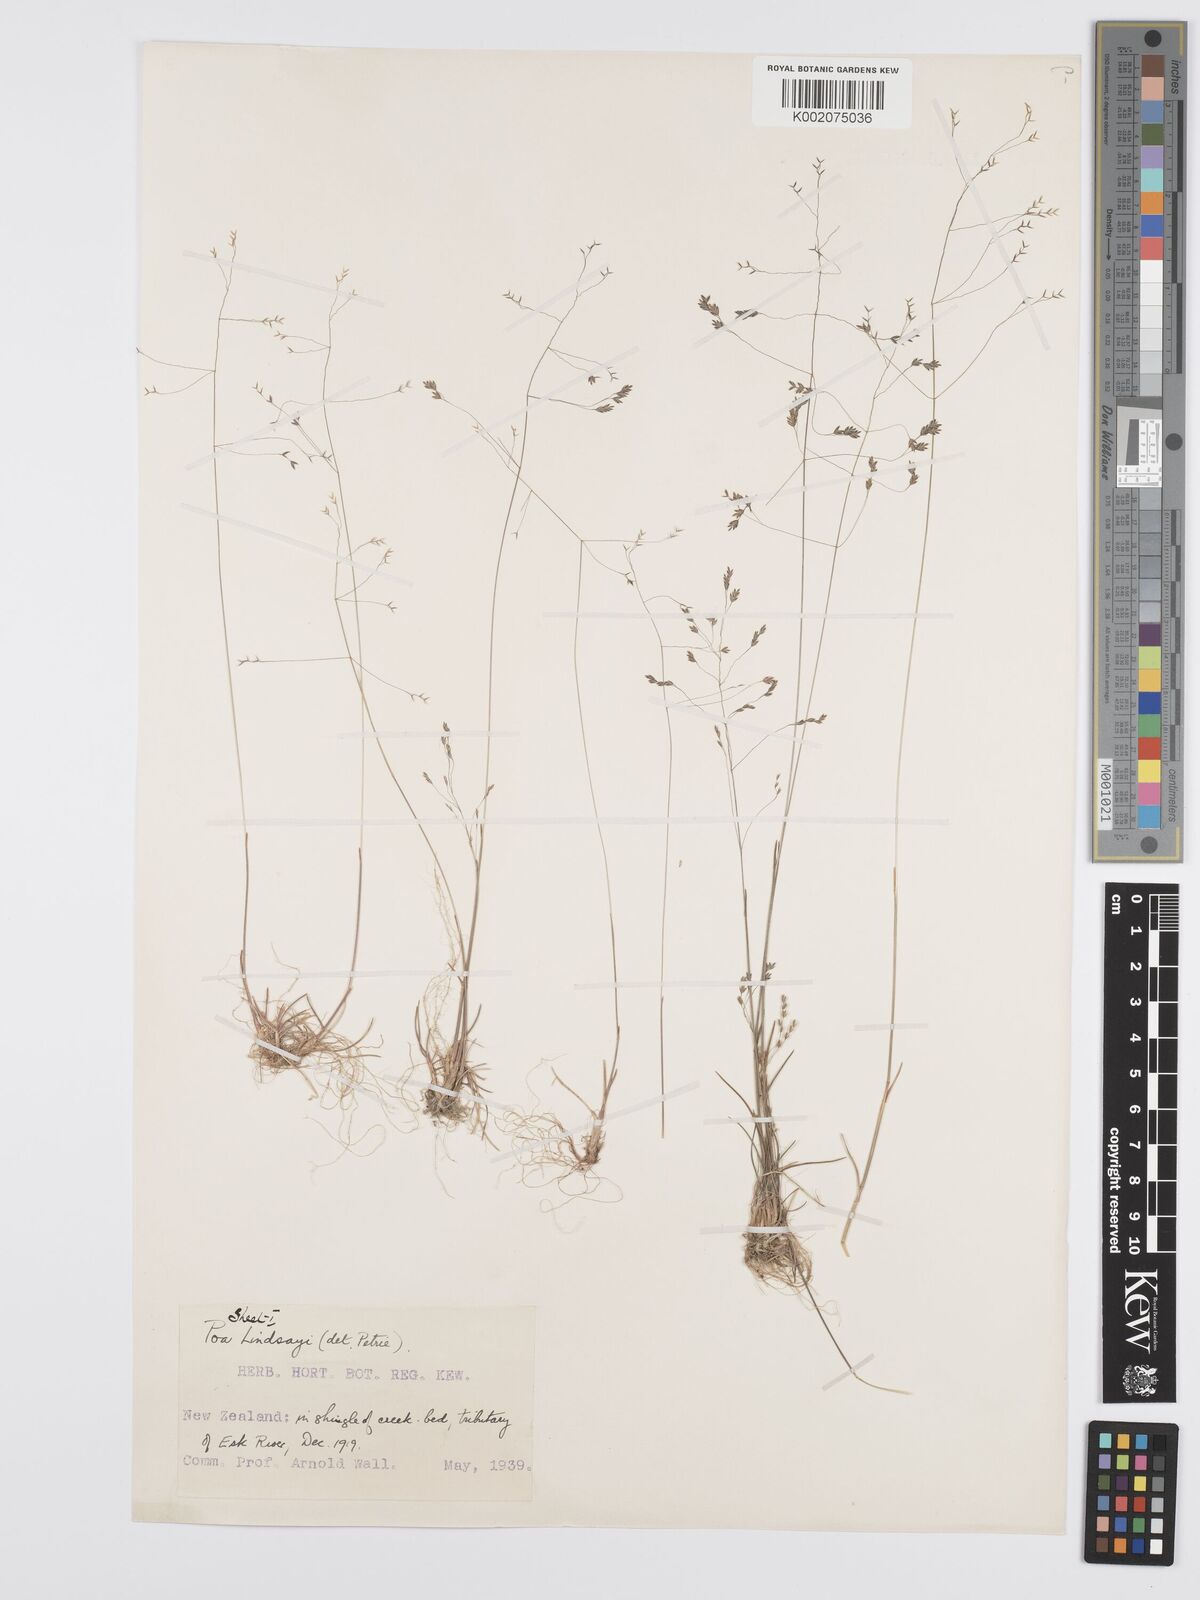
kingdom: Plantae
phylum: Tracheophyta
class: Liliopsida
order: Poales
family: Poaceae
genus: Poa
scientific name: Poa lindsayi
